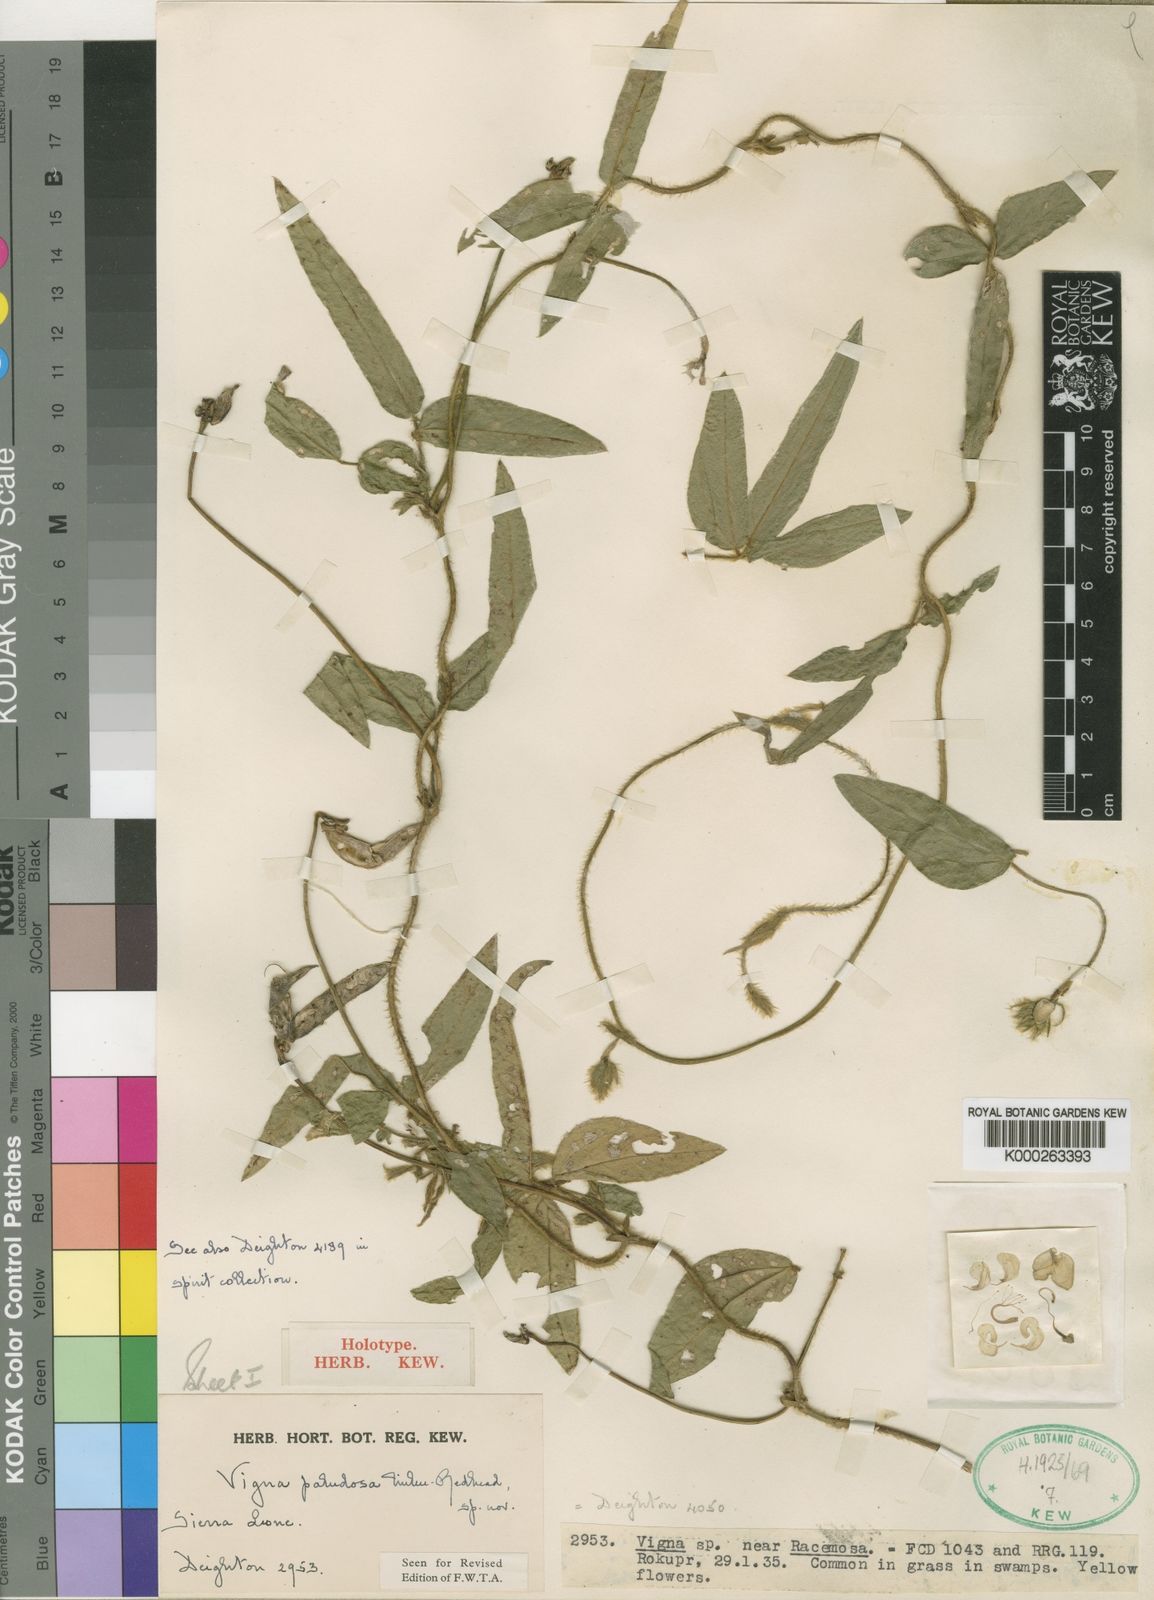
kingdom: Plantae
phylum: Tracheophyta
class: Magnoliopsida
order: Fabales
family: Fabaceae
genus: Vigna
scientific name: Vigna longifolia
